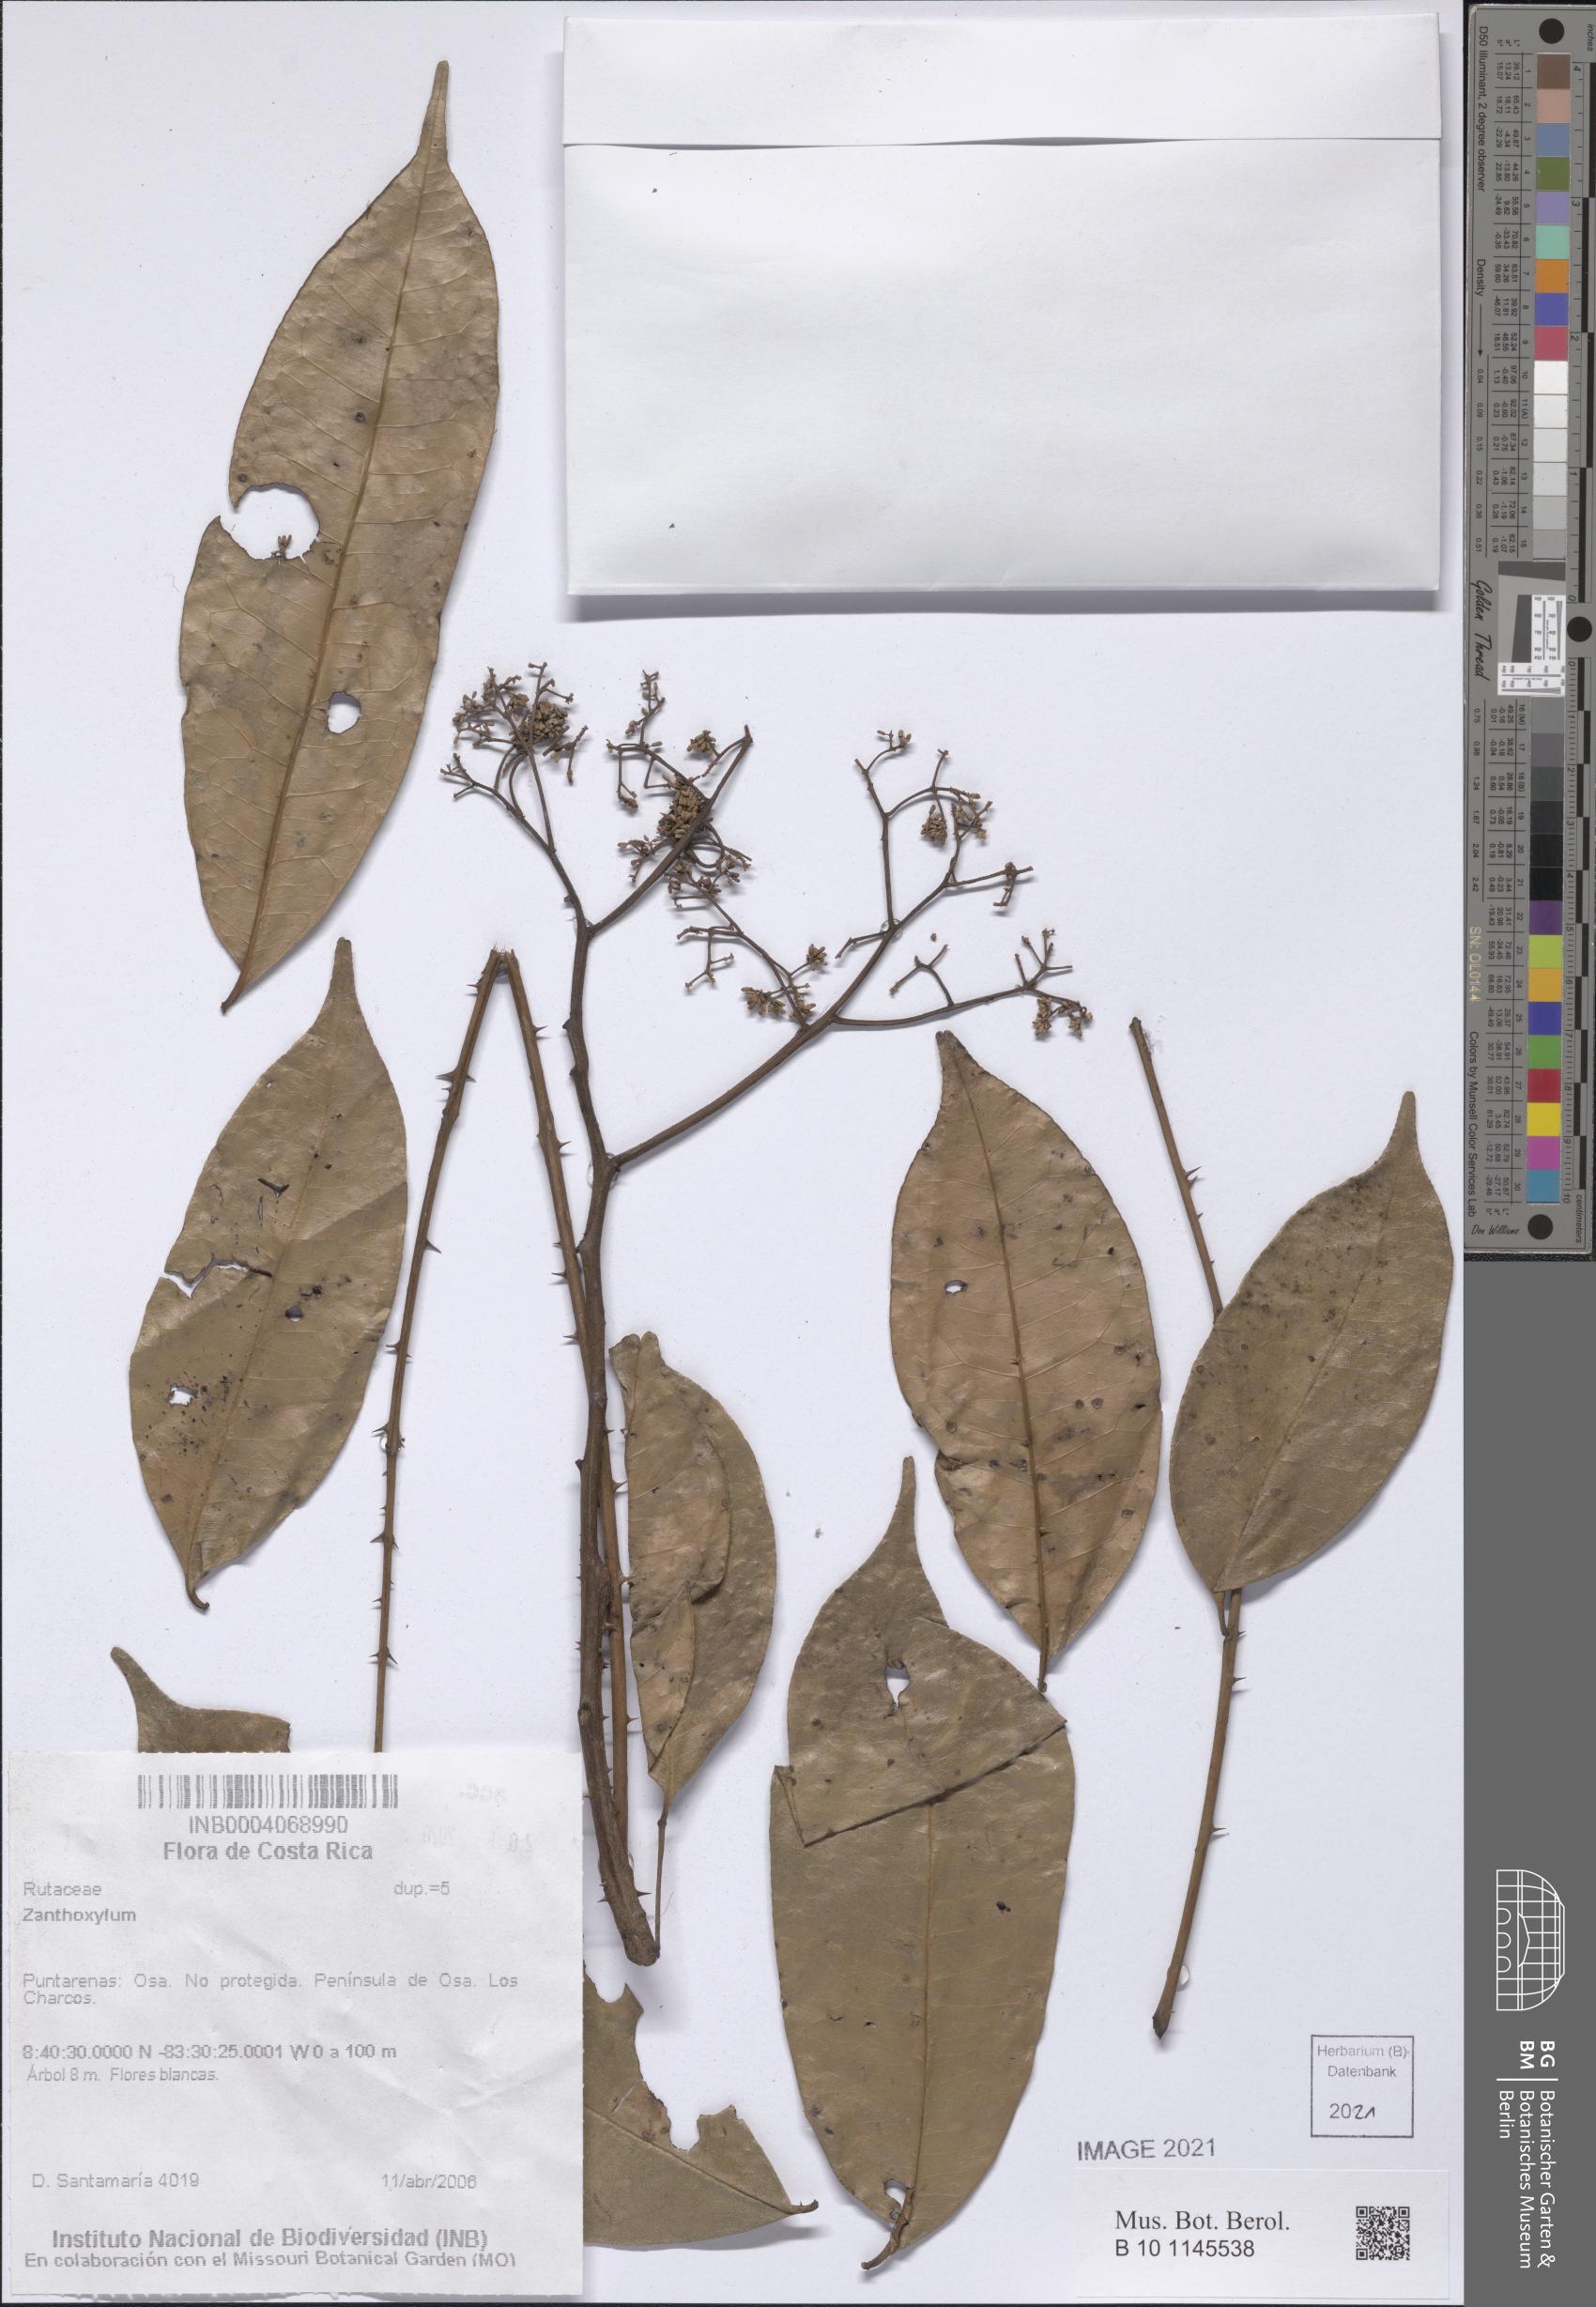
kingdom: Plantae
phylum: Tracheophyta
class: Magnoliopsida
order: Sapindales
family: Rutaceae
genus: Zanthoxylum
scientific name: Zanthoxylum
